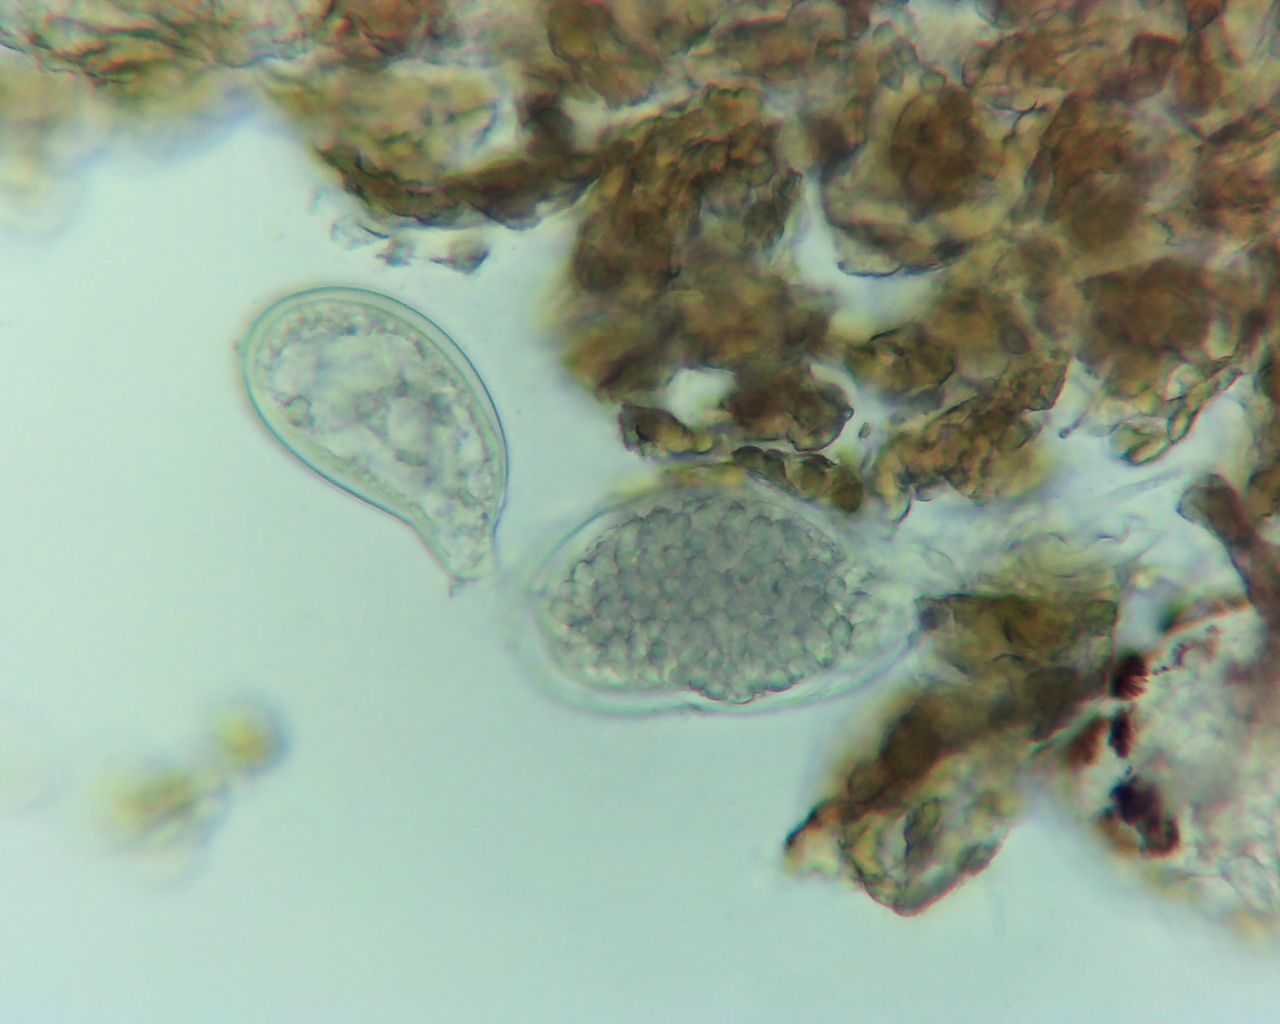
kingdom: Fungi
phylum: Ascomycota
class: Leotiomycetes
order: Thelebolales
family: Thelebolaceae
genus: Thelebolus
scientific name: Thelebolus
